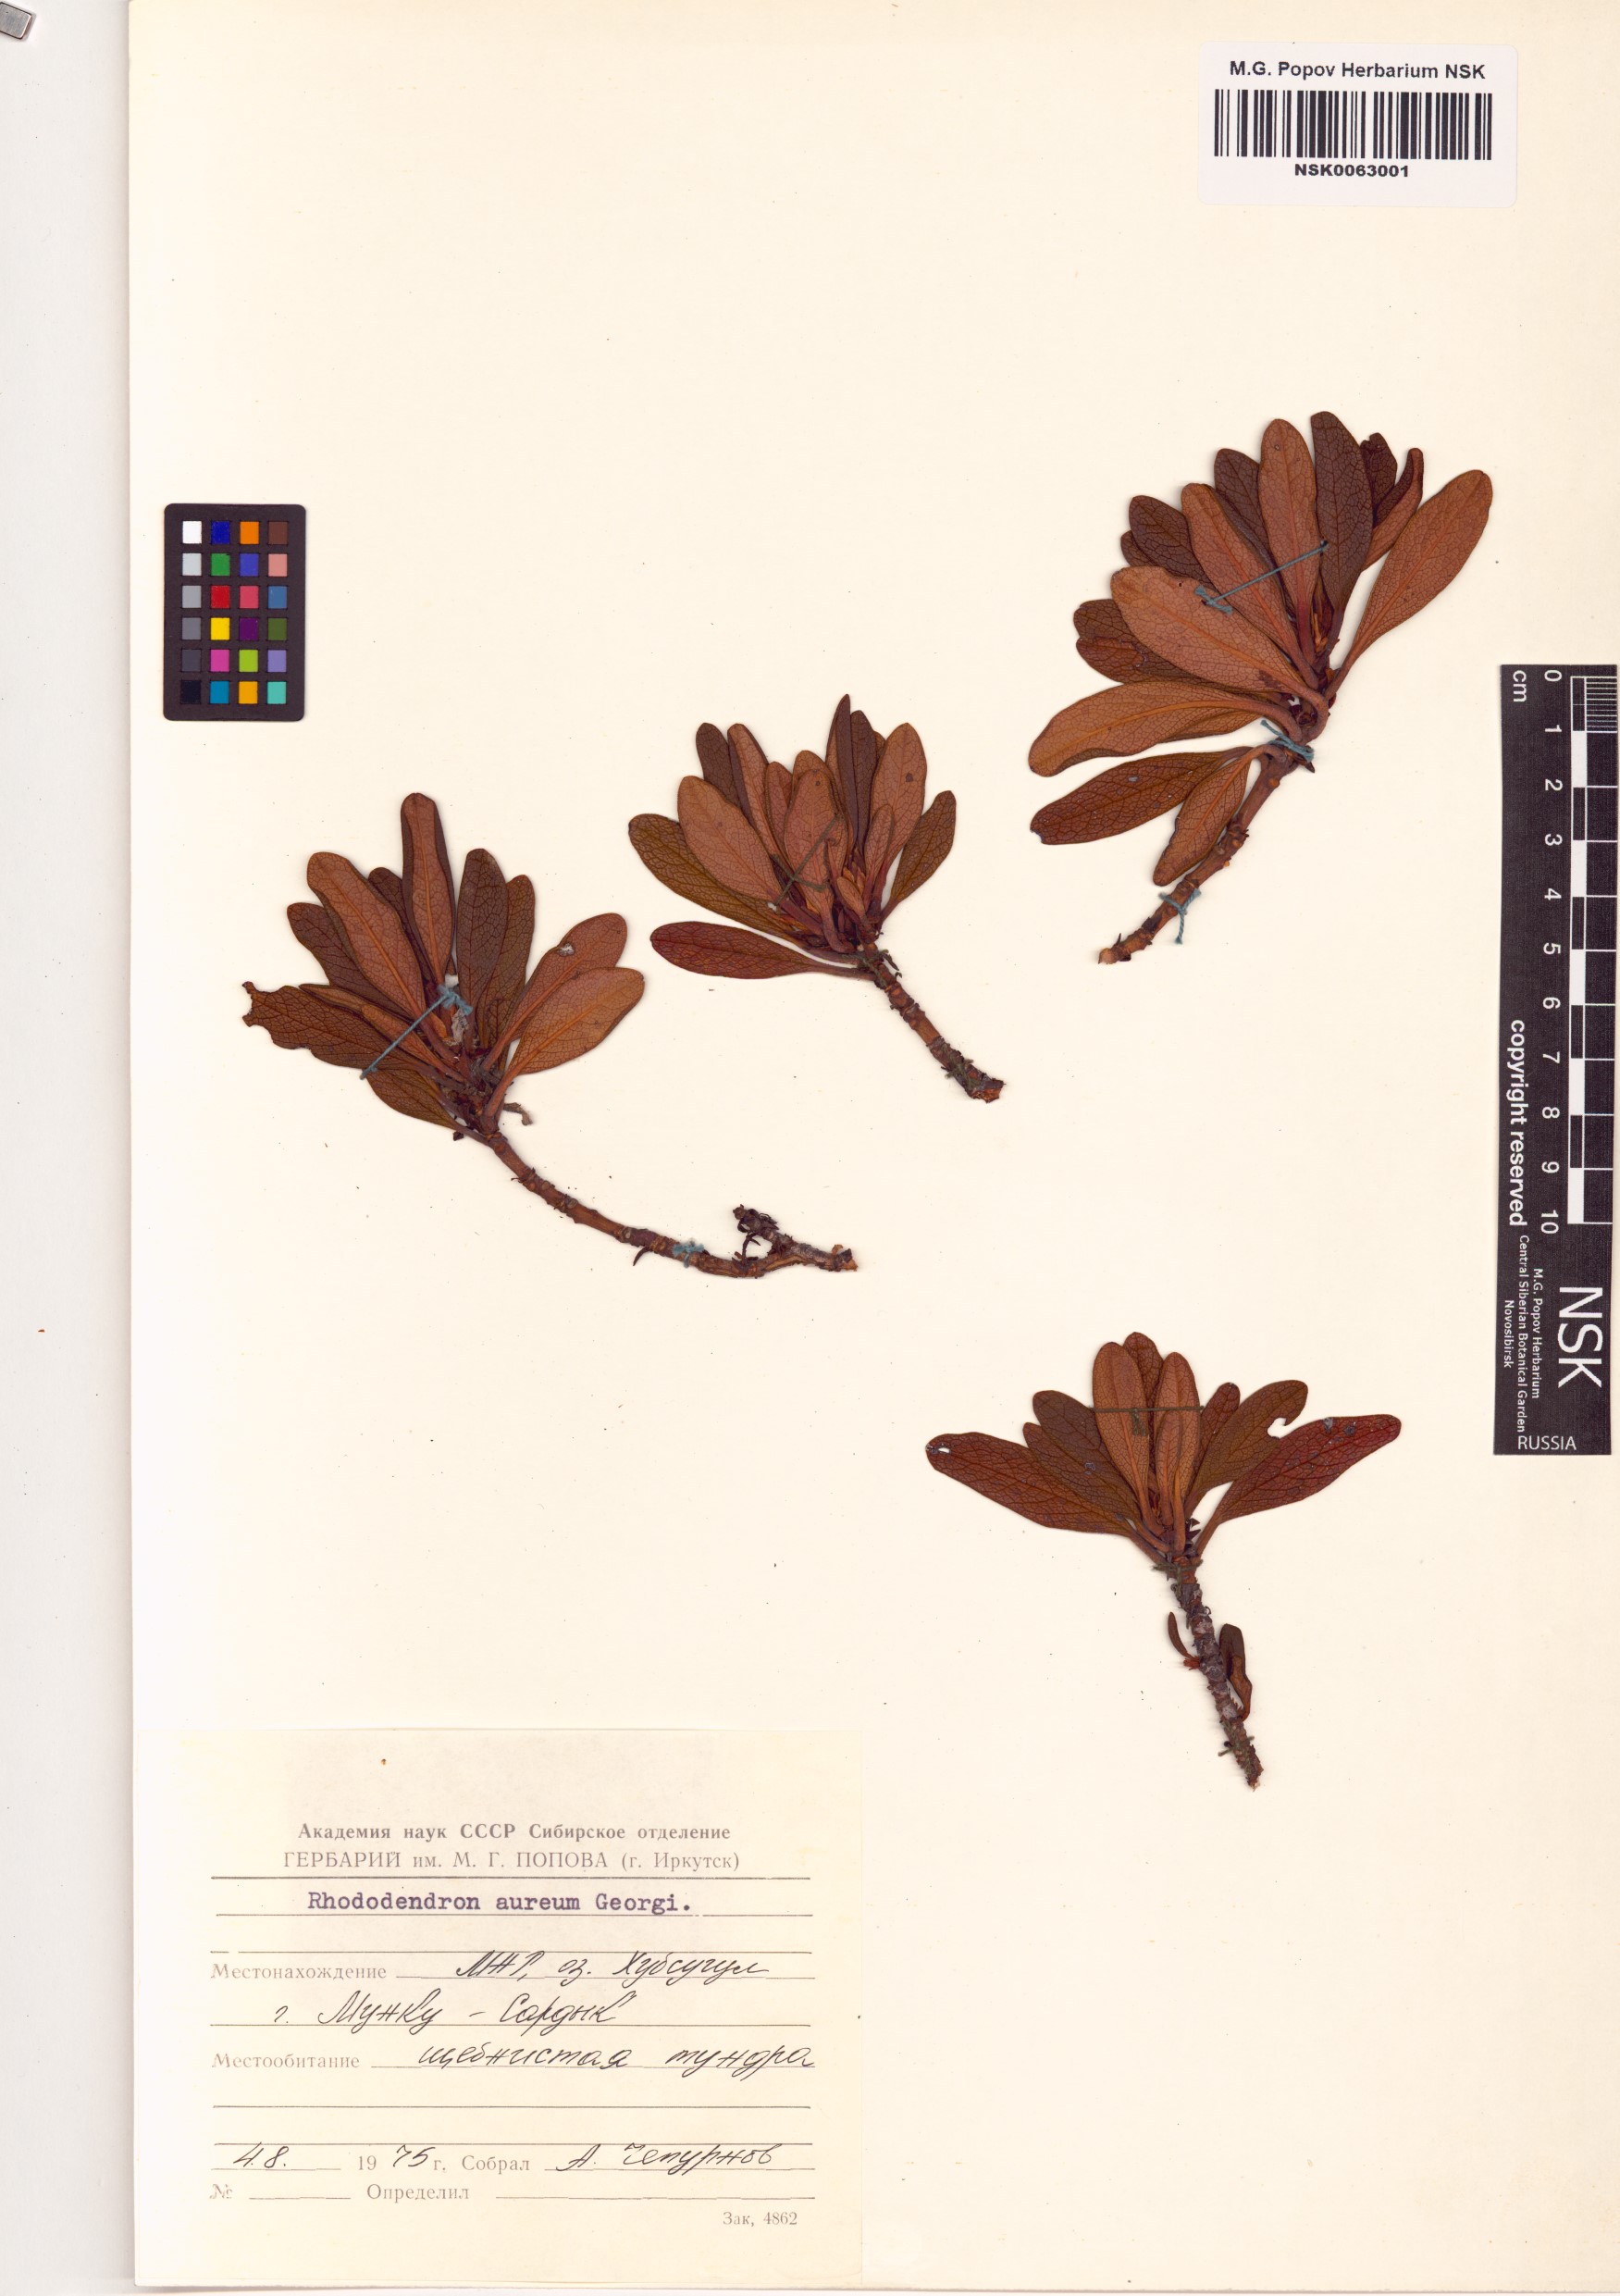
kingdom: Plantae
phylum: Tracheophyta
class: Magnoliopsida
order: Ericales
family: Ericaceae
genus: Rhododendron
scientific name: Rhododendron aureum
